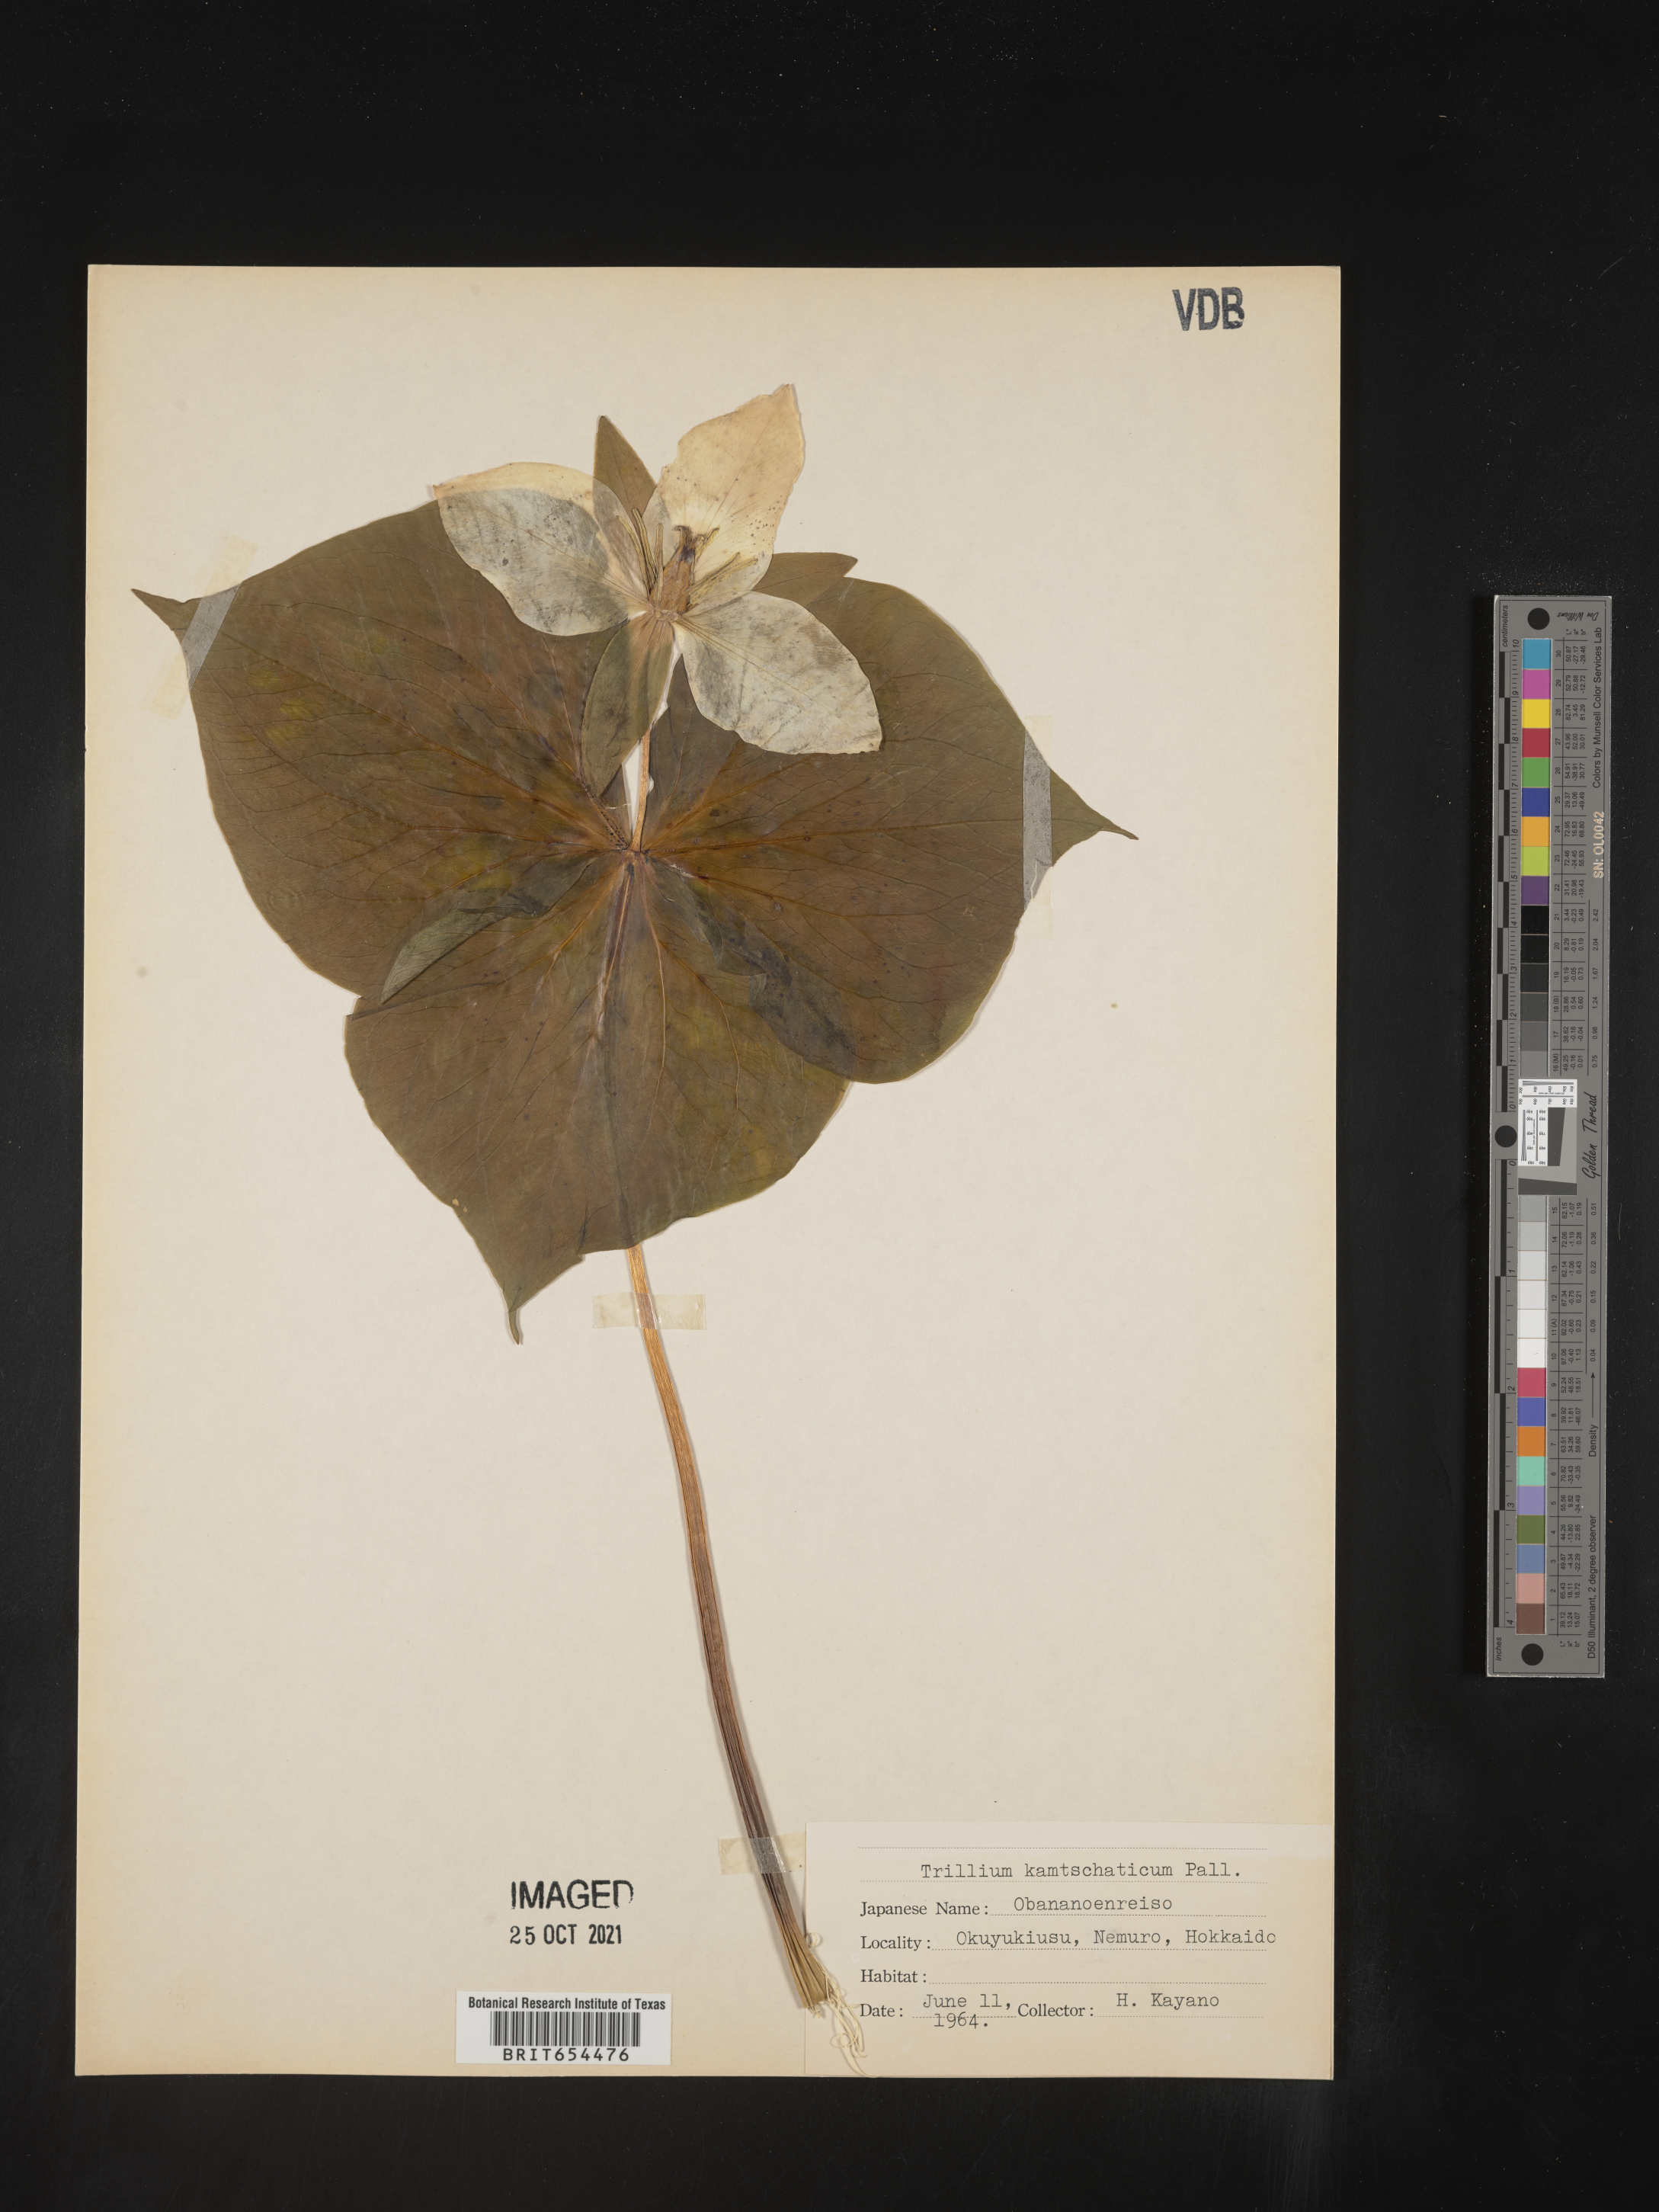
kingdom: Plantae
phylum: Tracheophyta
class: Liliopsida
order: Liliales
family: Melanthiaceae
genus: Trillium
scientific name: Trillium
